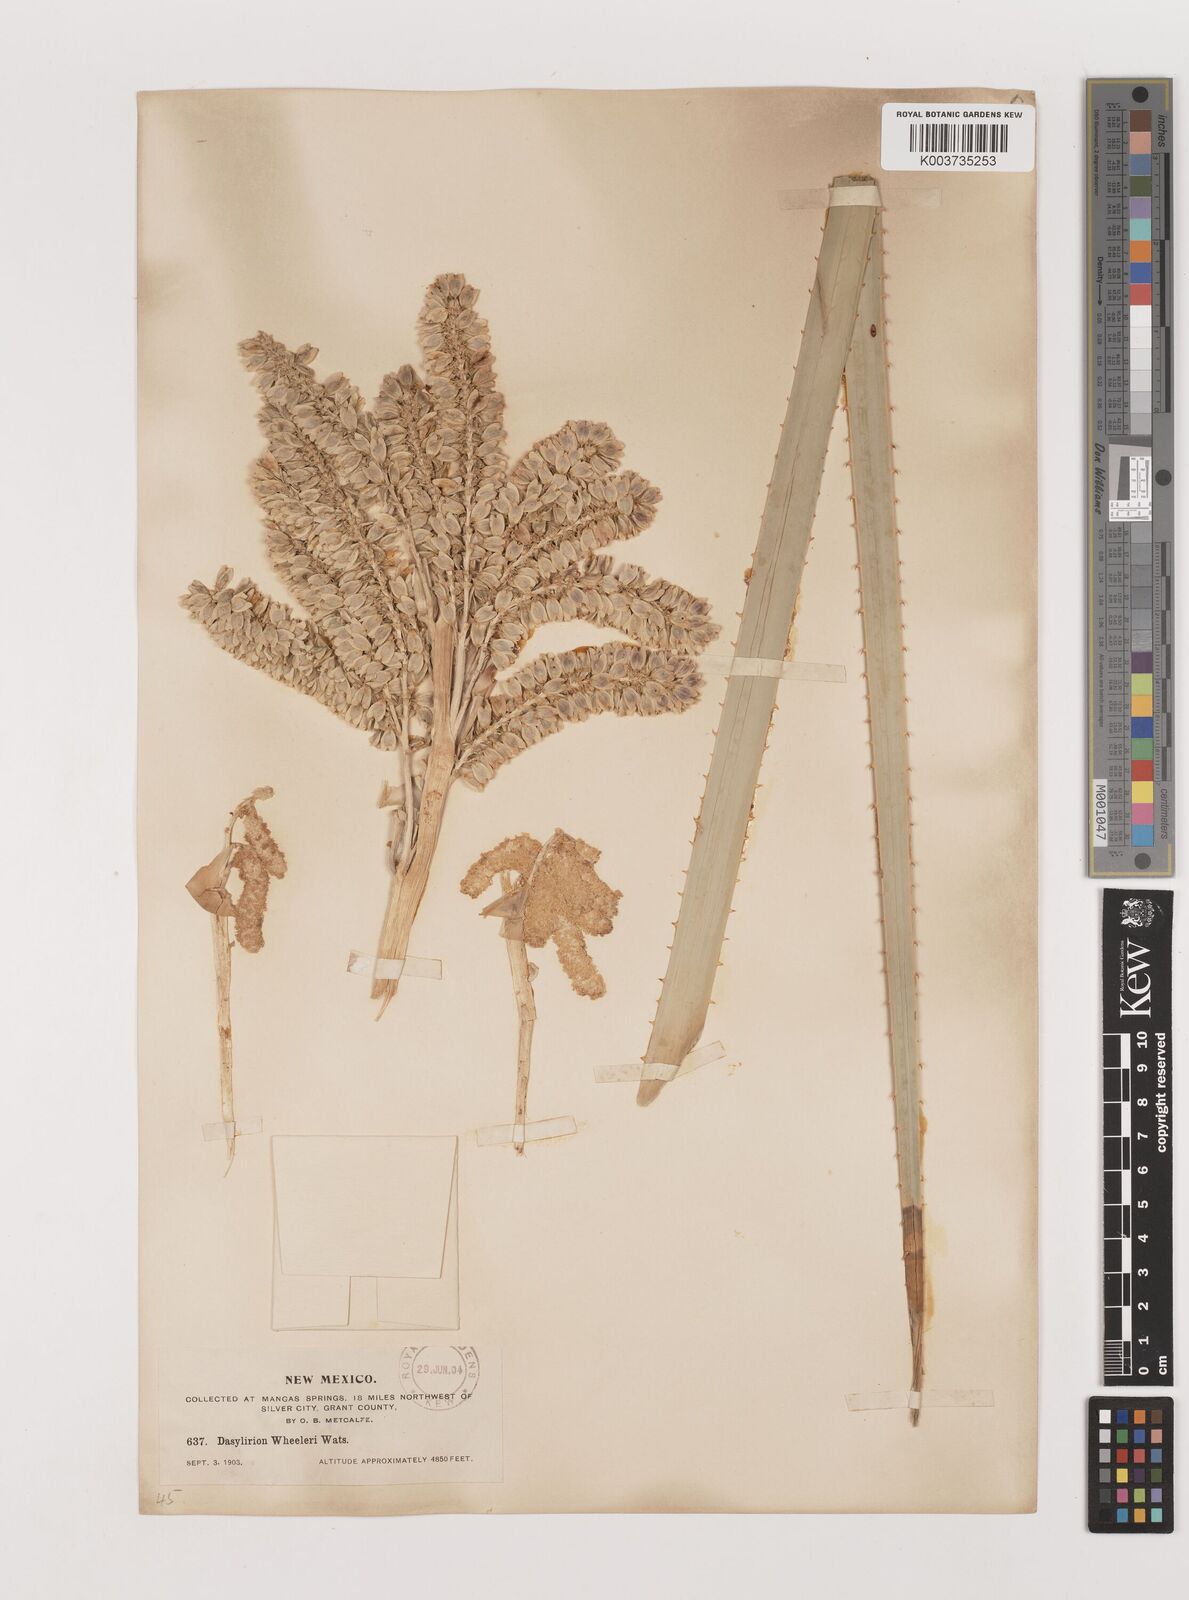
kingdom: Plantae
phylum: Tracheophyta
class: Liliopsida
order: Asparagales
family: Asparagaceae
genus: Dasylirion
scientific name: Dasylirion wheeleri
